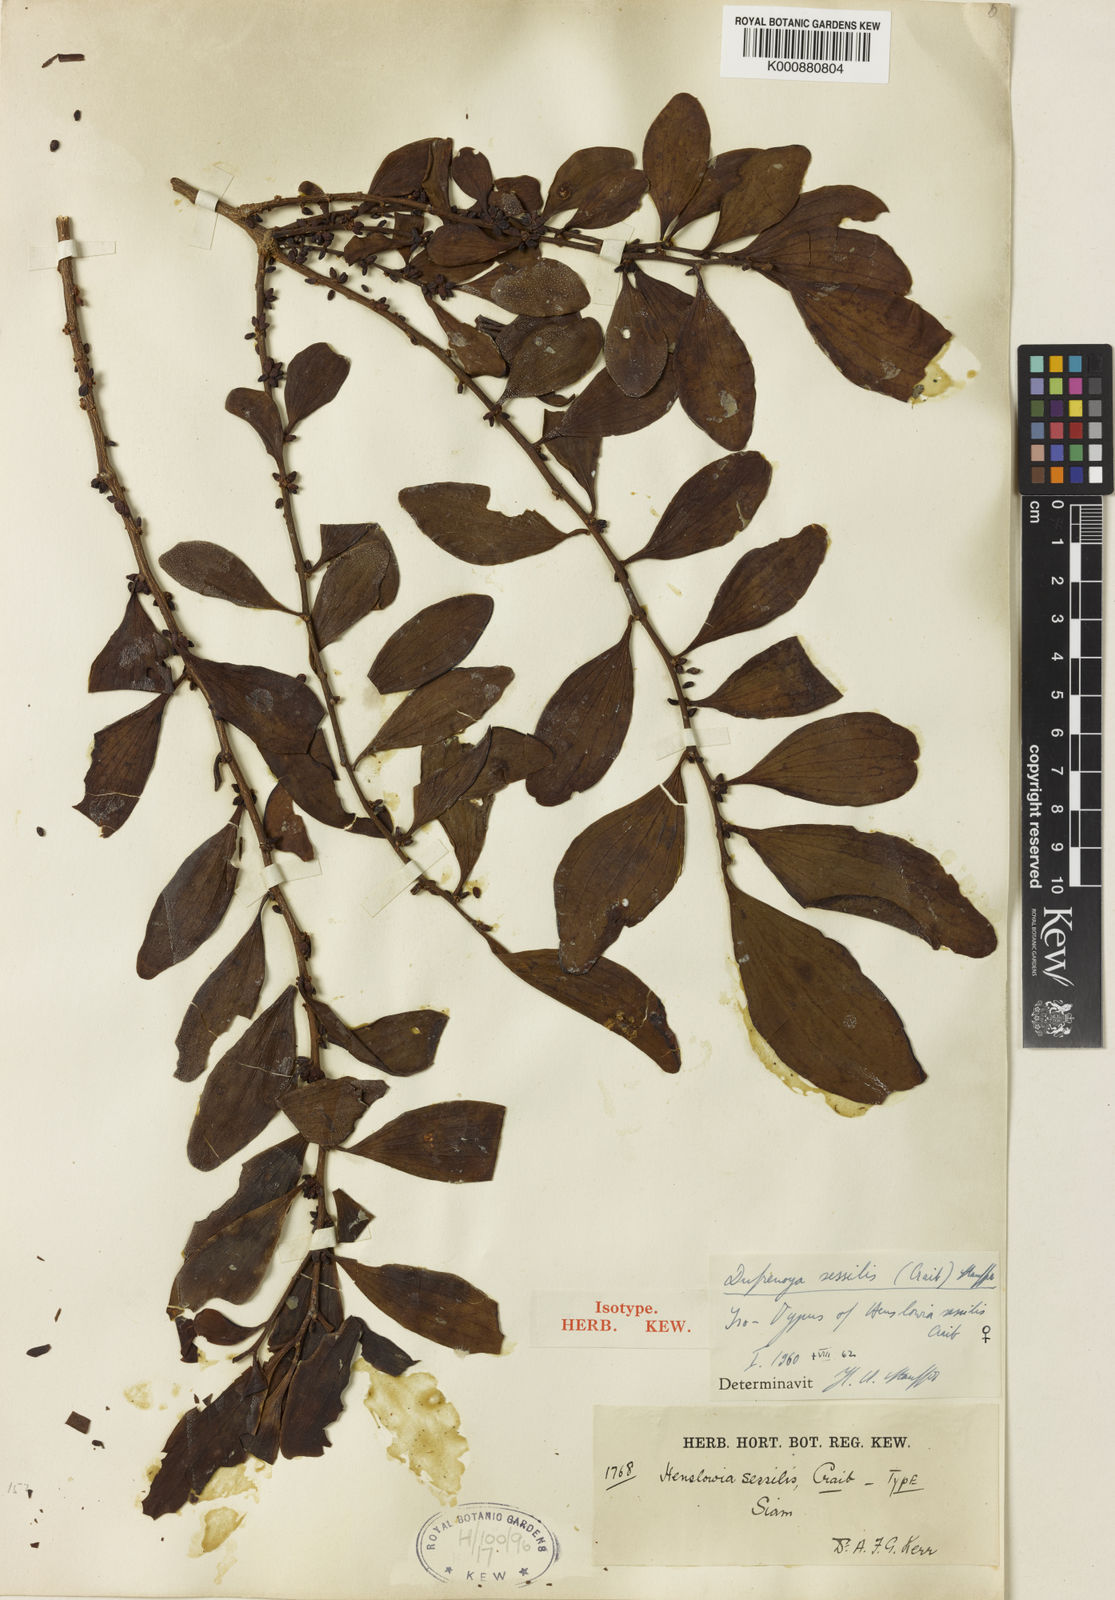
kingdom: Plantae
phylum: Tracheophyta
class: Magnoliopsida
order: Santalales
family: Amphorogynaceae
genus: Dufrenoya
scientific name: Dufrenoya sessilis
